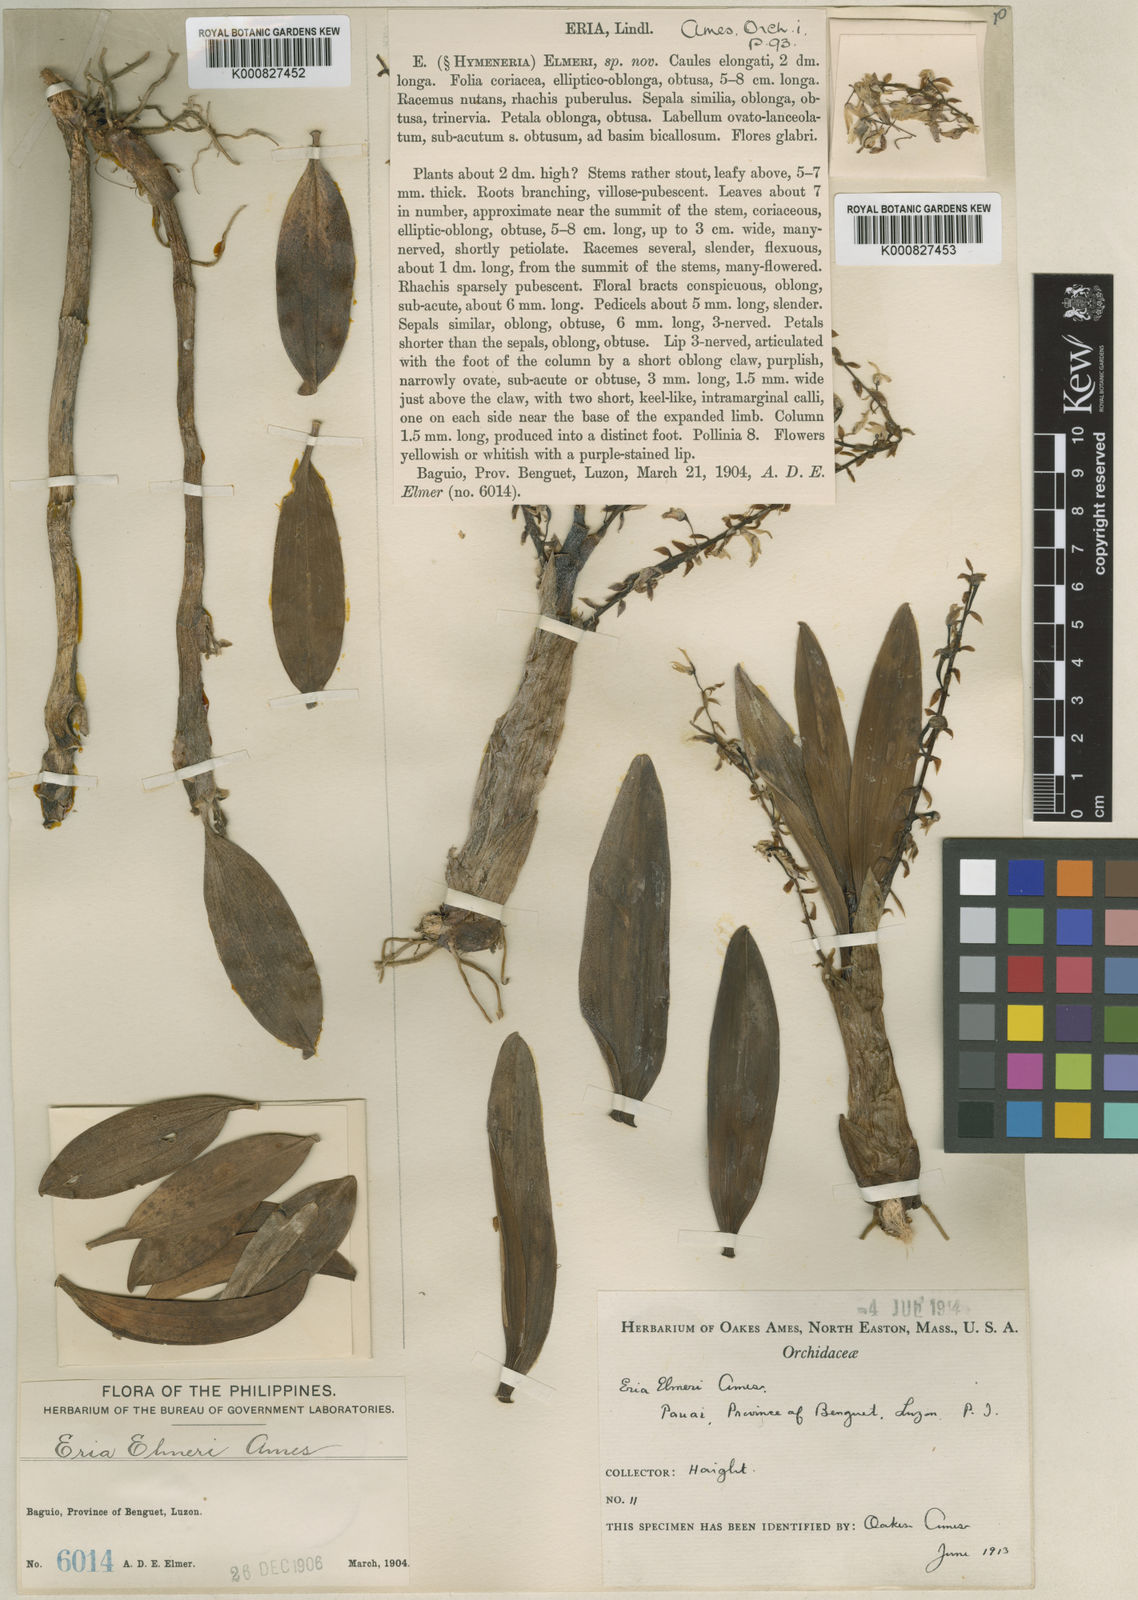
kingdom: Plantae
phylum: Tracheophyta
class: Liliopsida
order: Asparagales
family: Orchidaceae
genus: Pinalia
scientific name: Pinalia ovata
